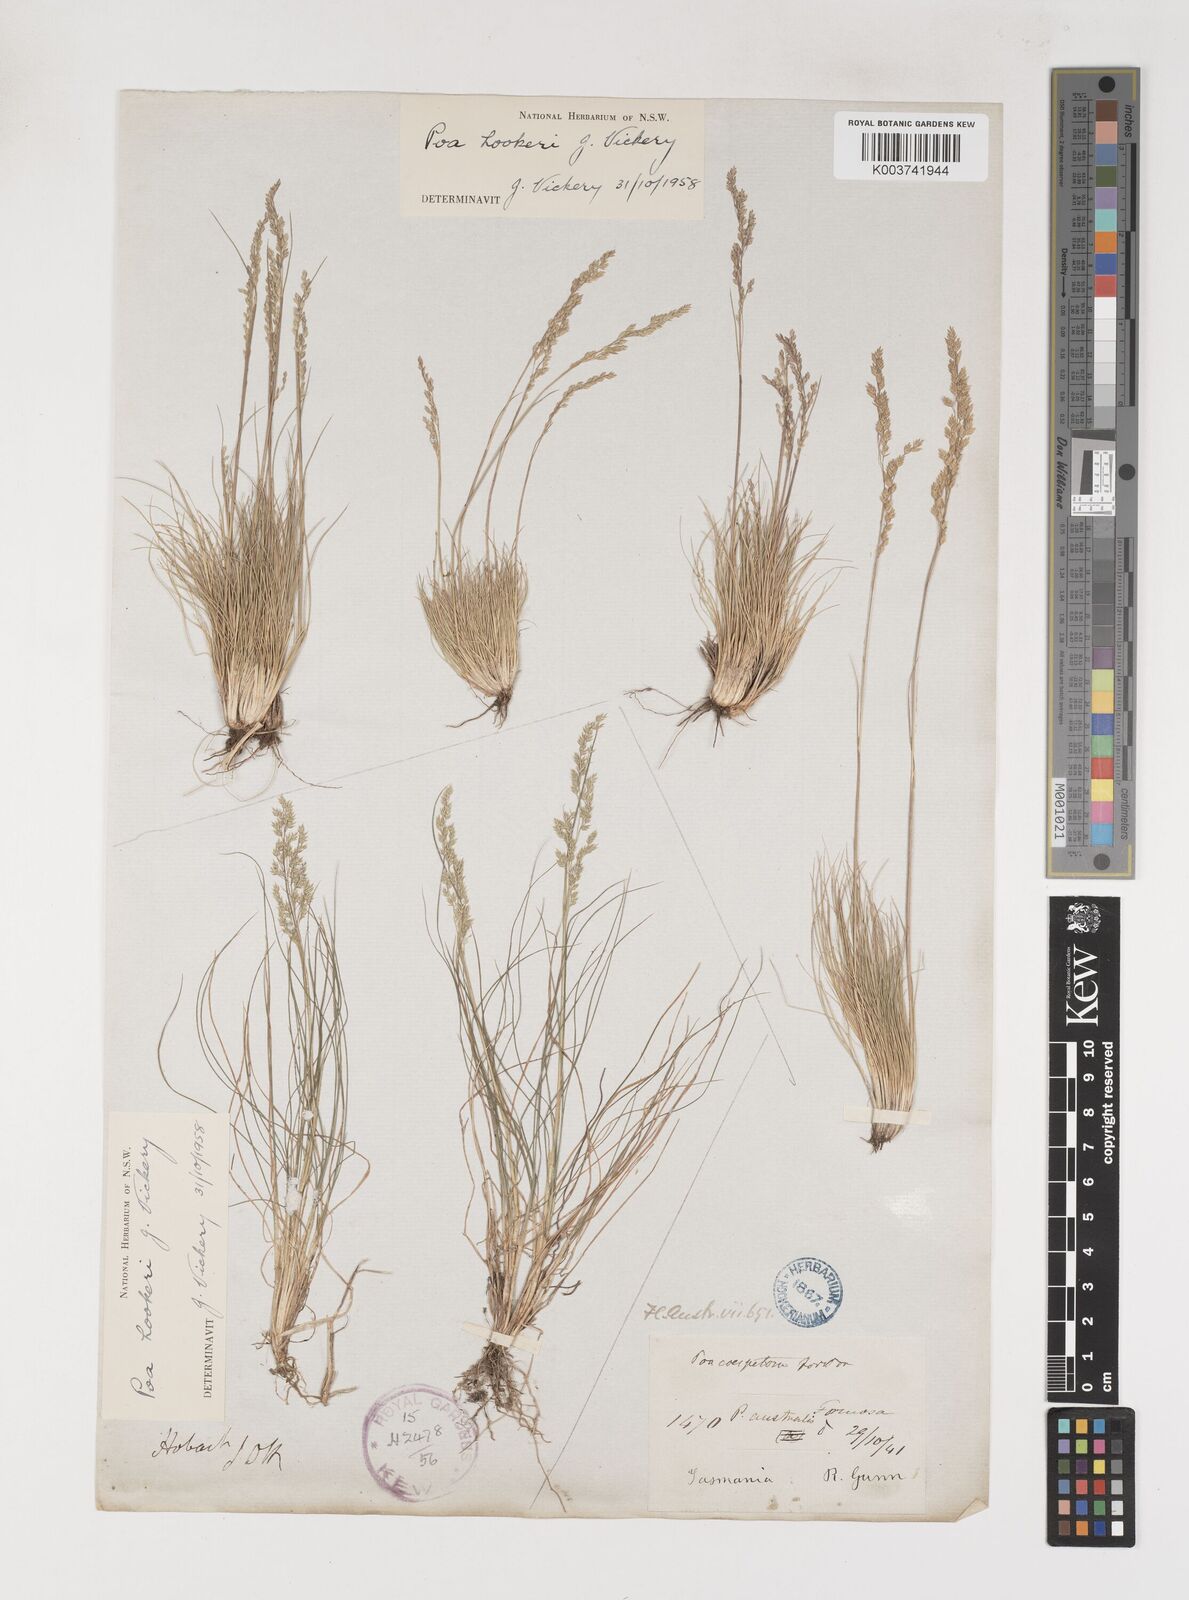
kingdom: Plantae
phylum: Tracheophyta
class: Liliopsida
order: Poales
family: Poaceae
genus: Poa
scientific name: Poa hookeri
